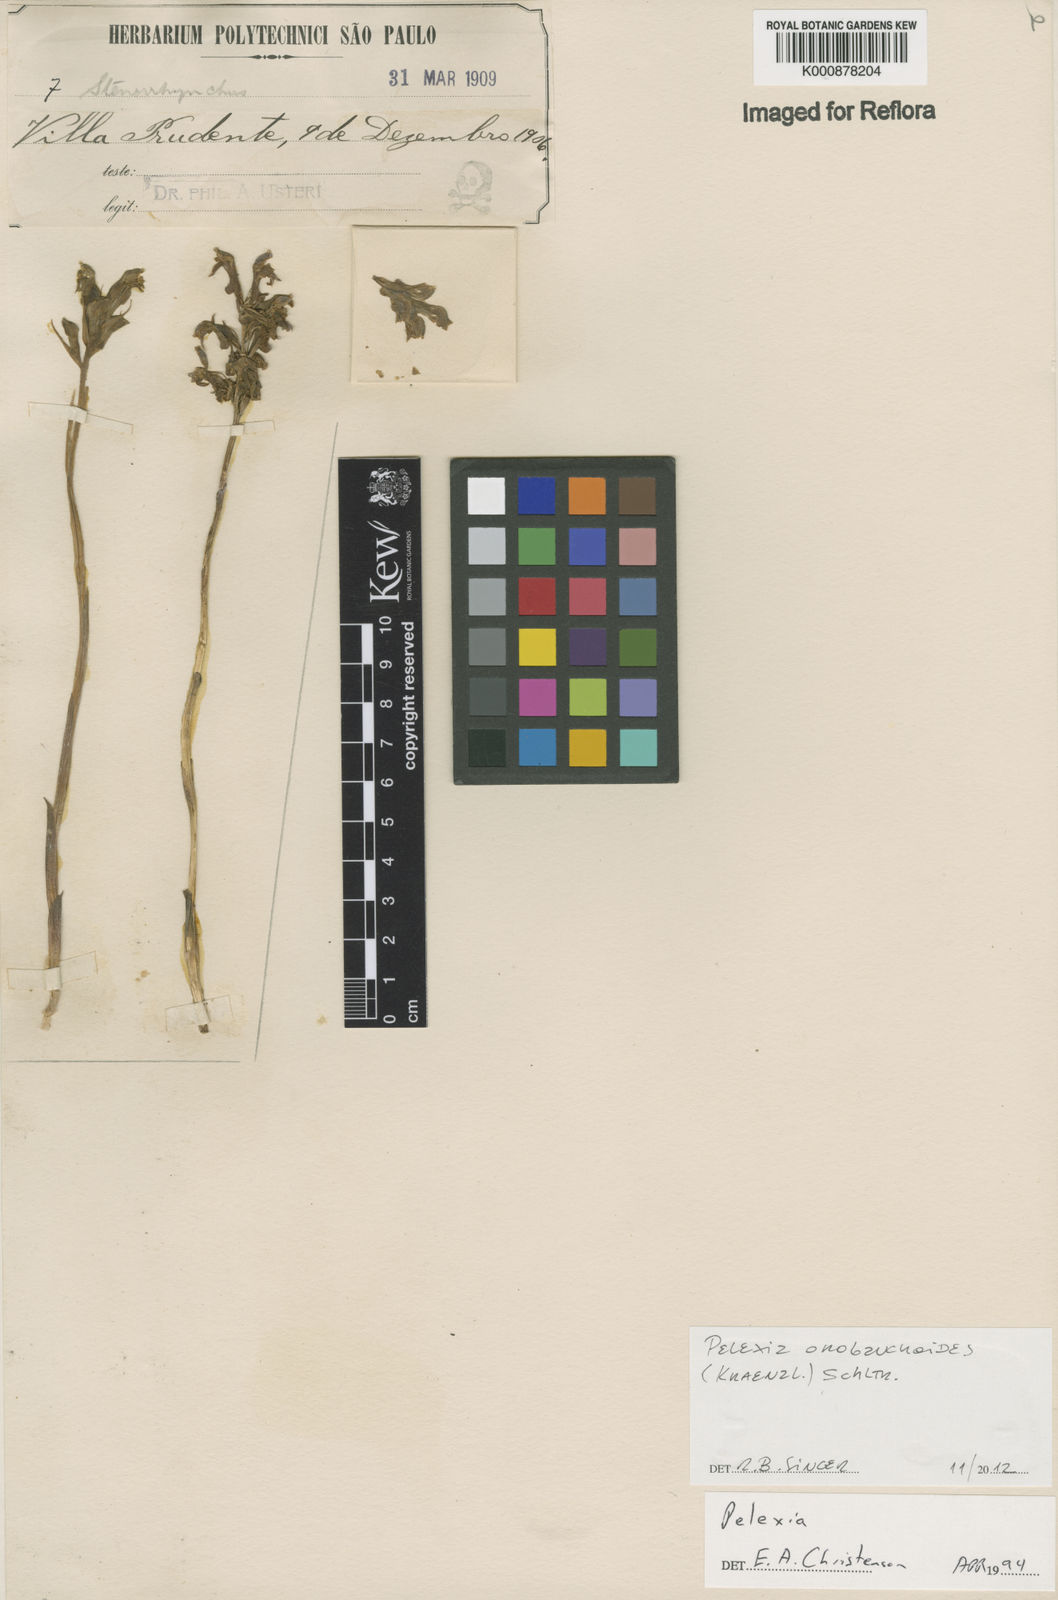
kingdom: Plantae
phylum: Tracheophyta
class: Liliopsida
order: Asparagales
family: Orchidaceae
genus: Pelexia
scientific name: Pelexia orobanchoides
